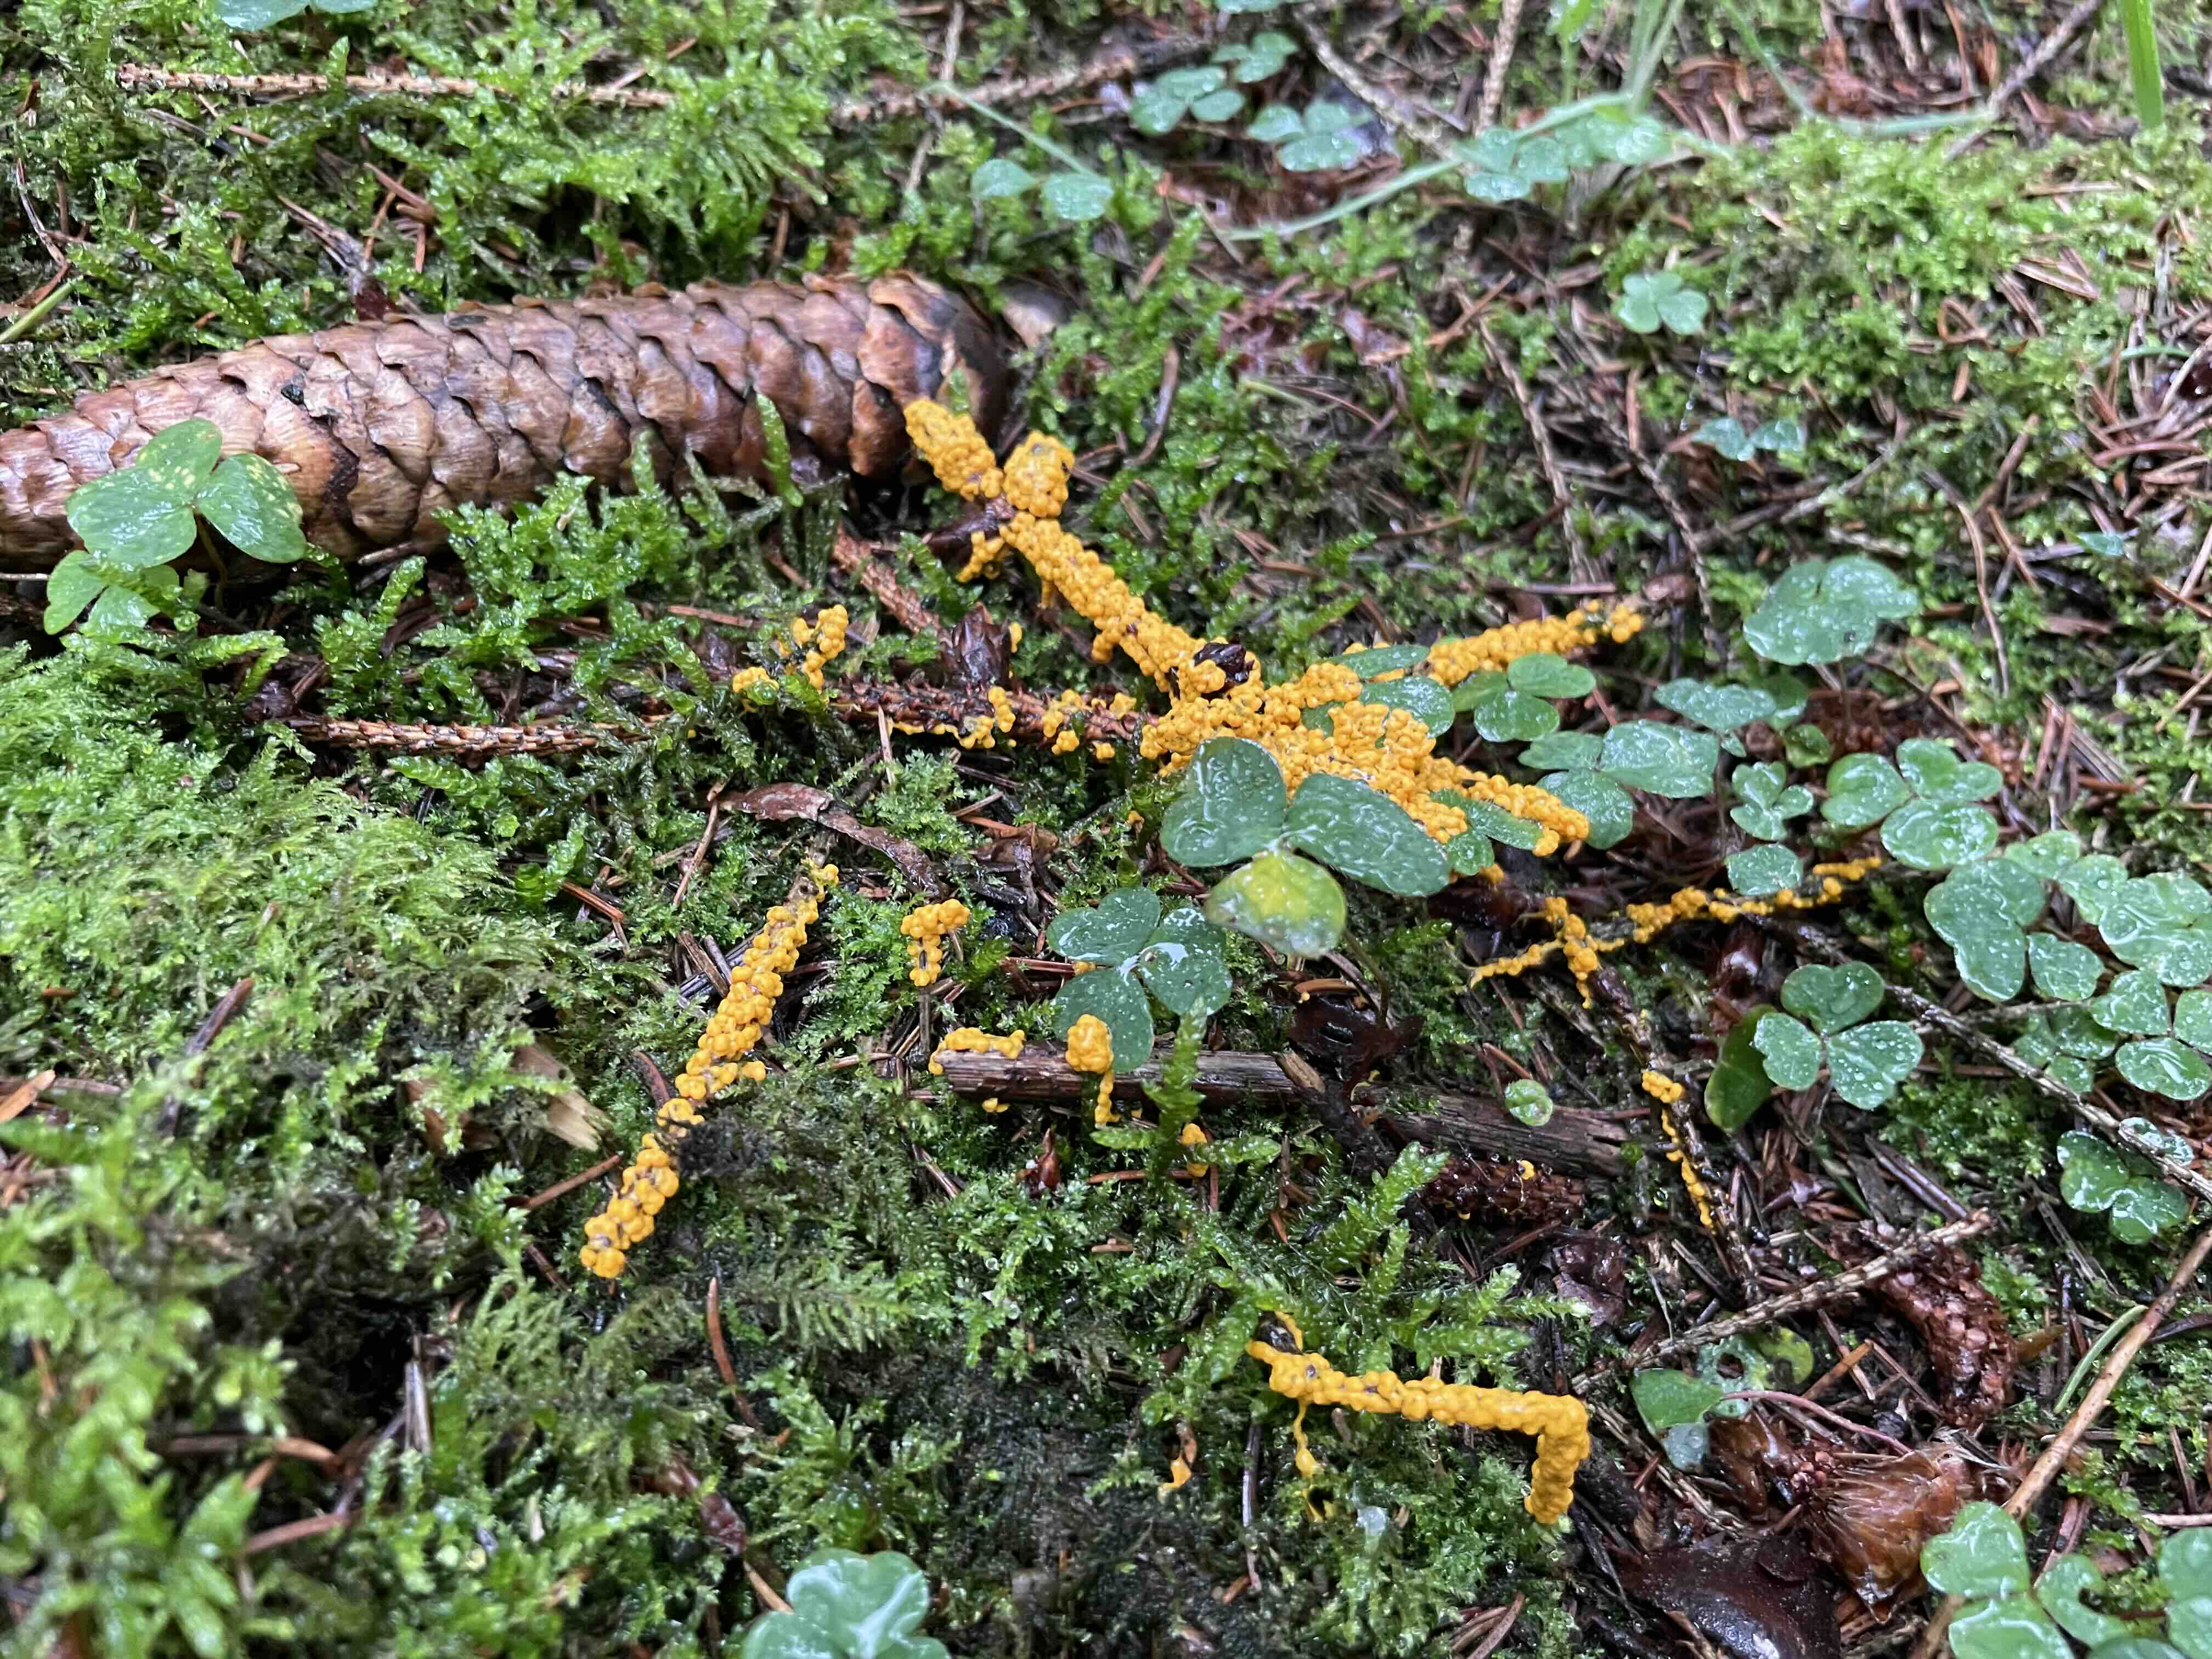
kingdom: Protozoa
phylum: Mycetozoa
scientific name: Mycetozoa
